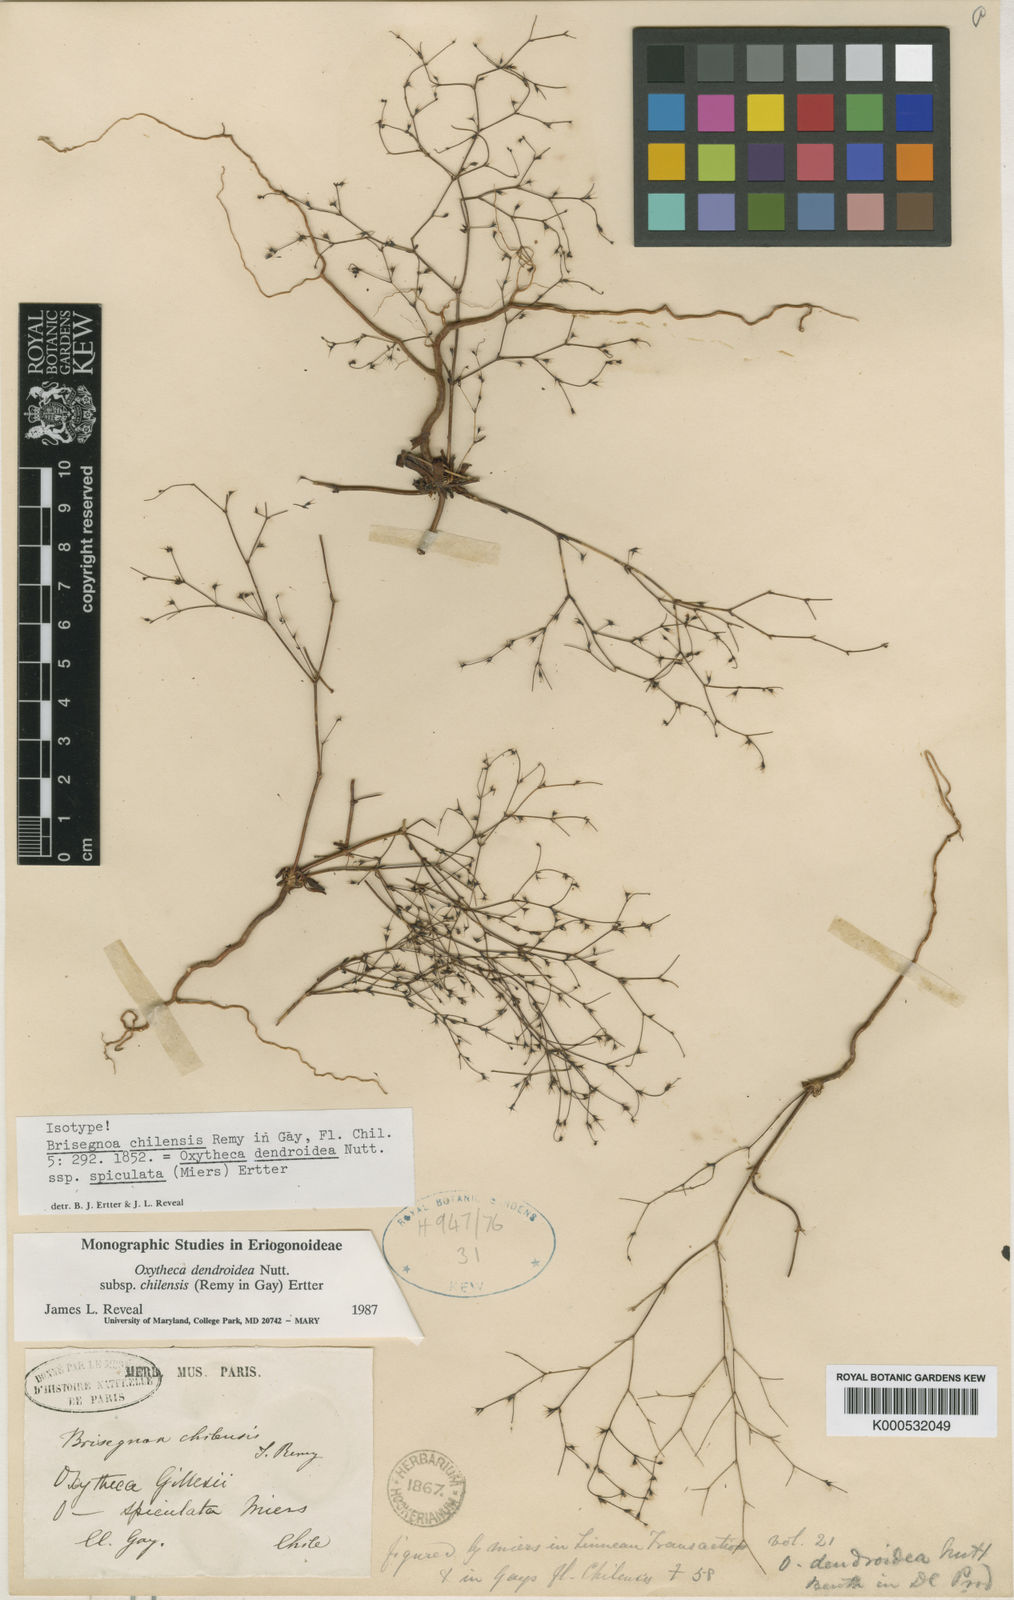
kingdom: Plantae
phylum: Tracheophyta
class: Magnoliopsida
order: Caryophyllales
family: Polygonaceae
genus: Oxytheca
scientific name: Oxytheca dendroidea
